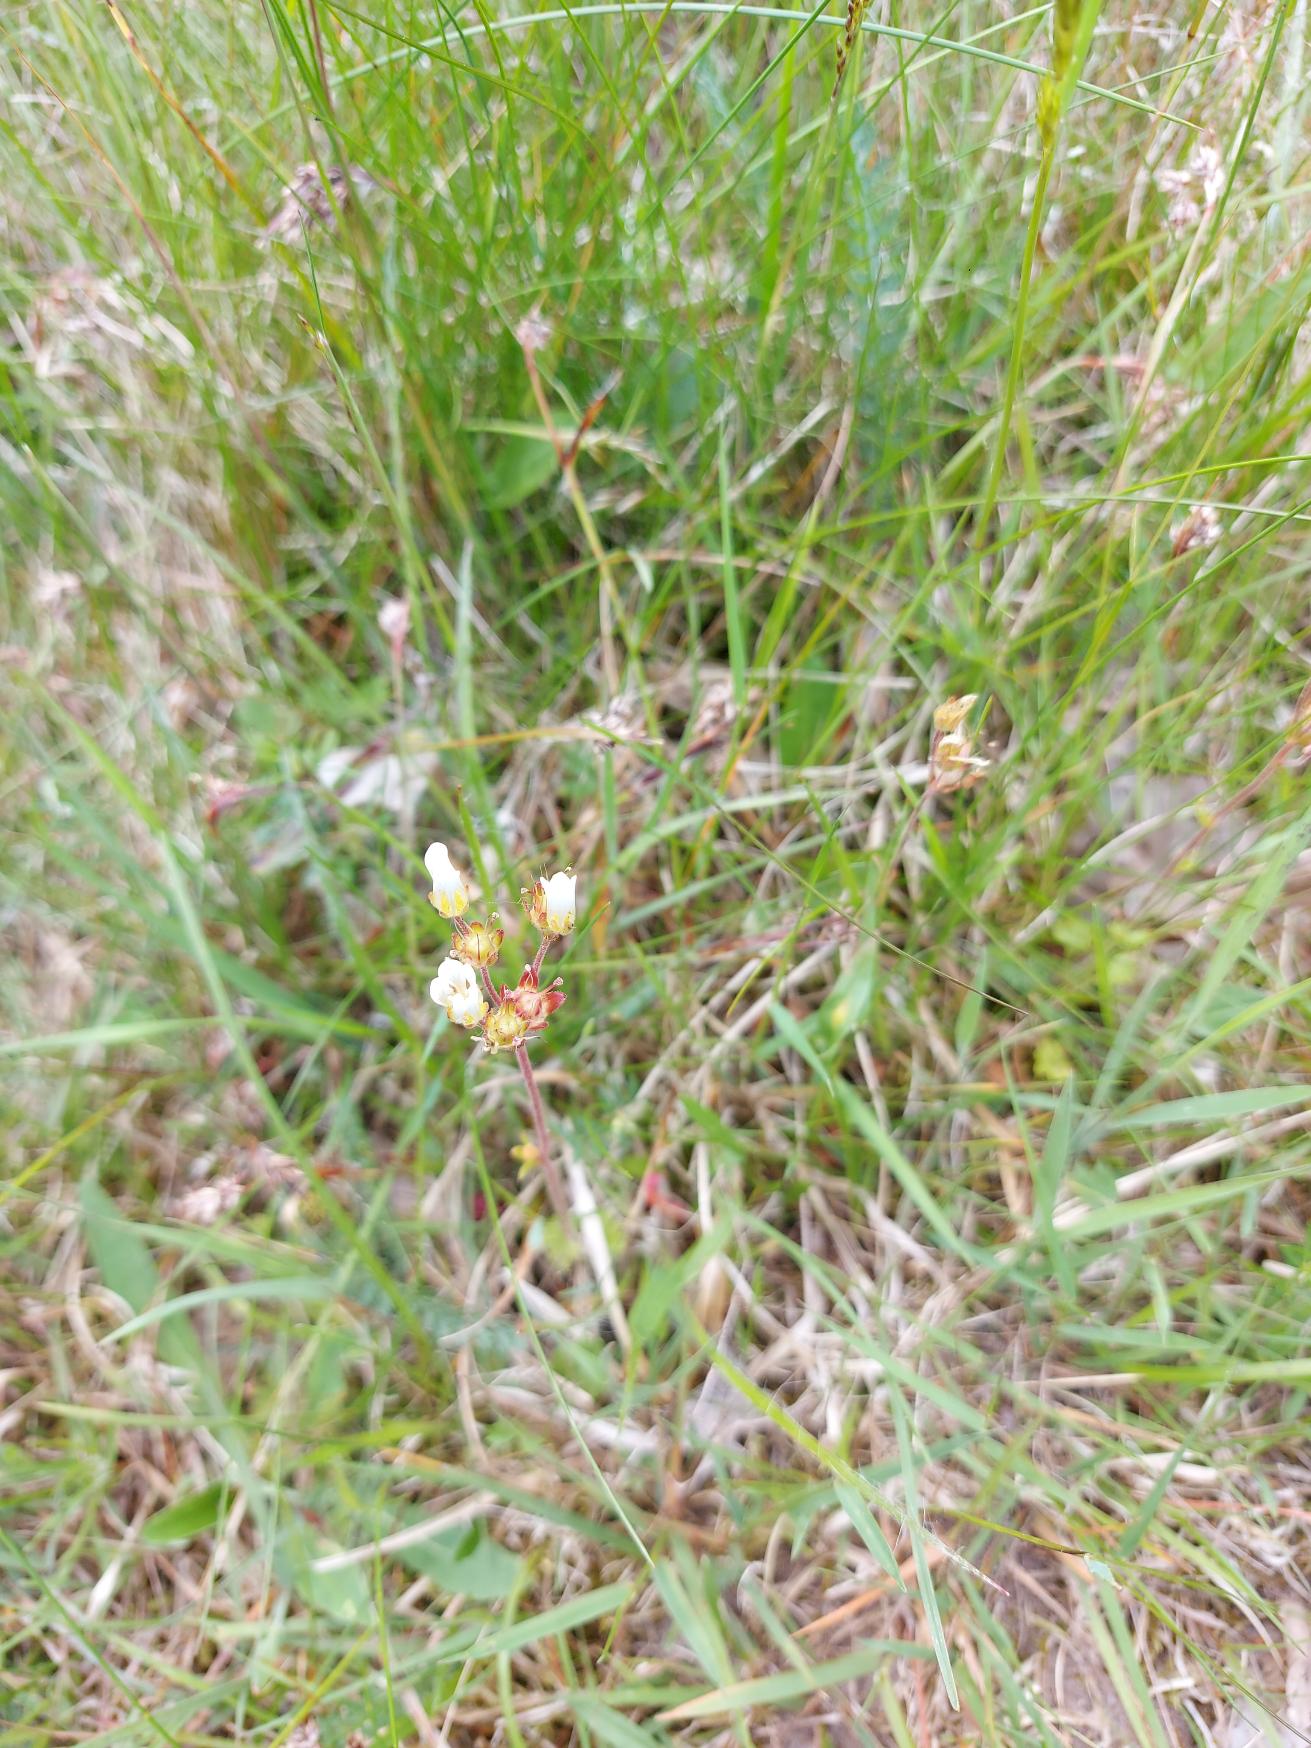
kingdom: Plantae
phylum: Tracheophyta
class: Magnoliopsida
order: Saxifragales
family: Saxifragaceae
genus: Saxifraga
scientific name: Saxifraga granulata
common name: Kornet stenbræk
